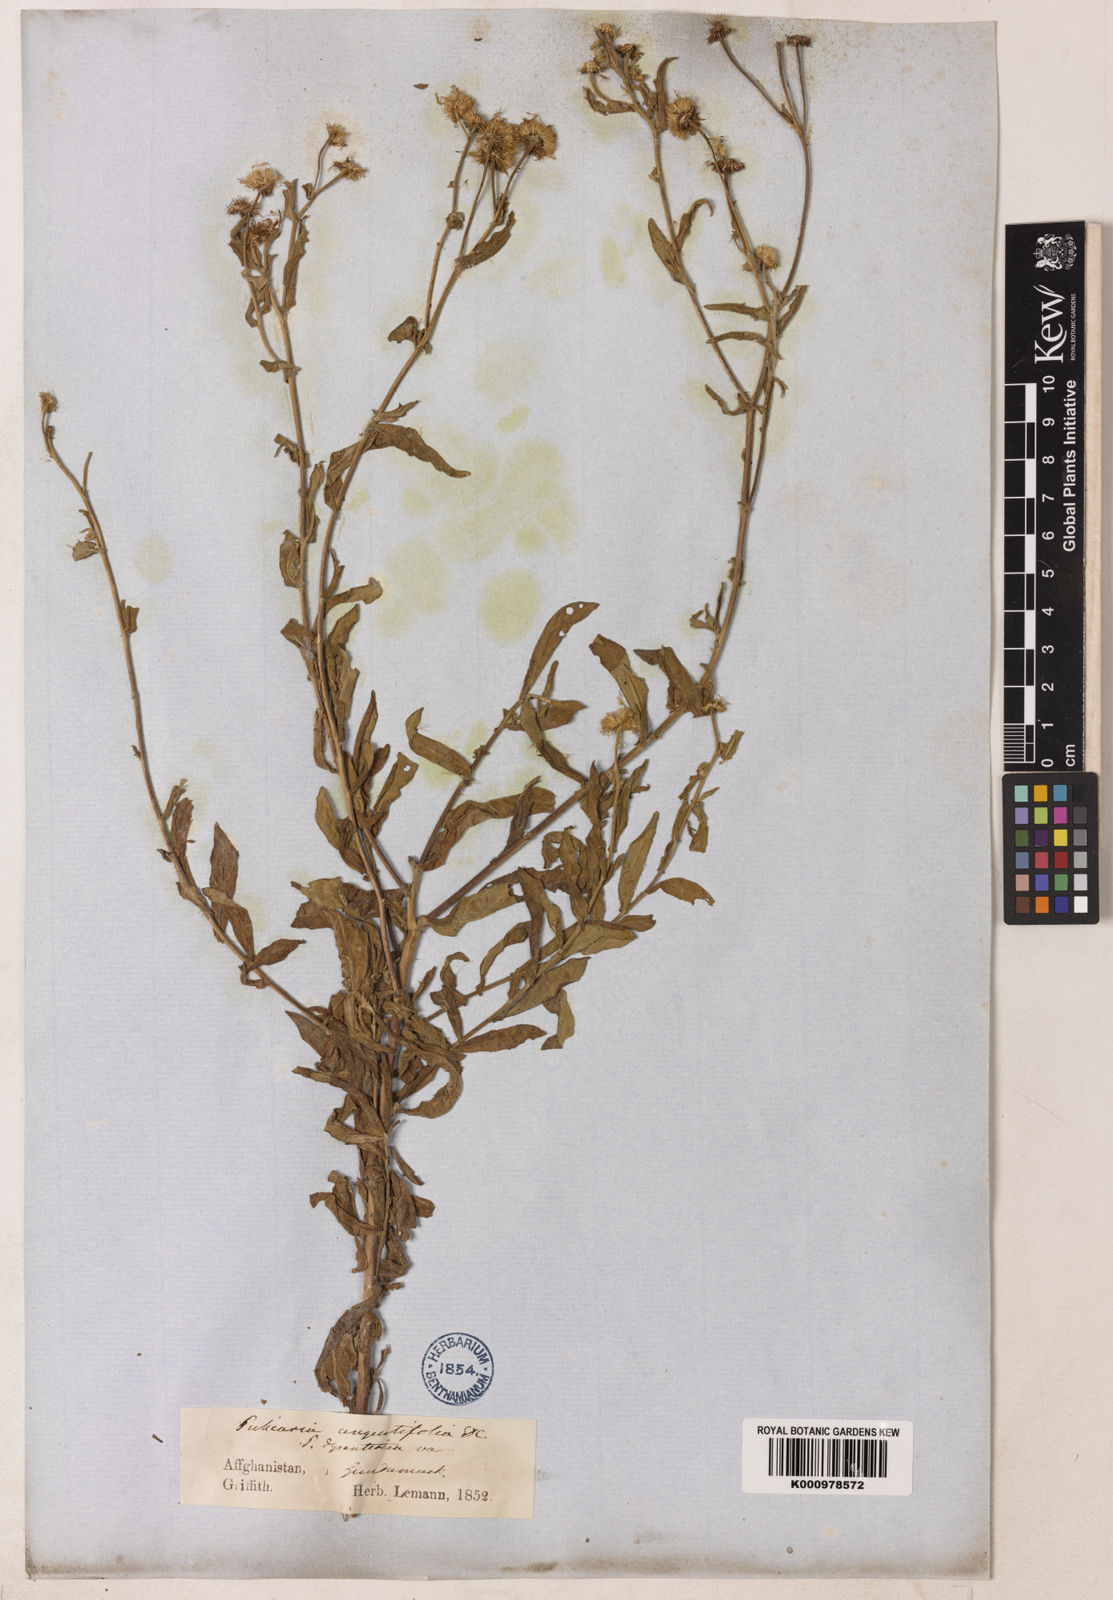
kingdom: Plantae
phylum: Tracheophyta
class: Magnoliopsida
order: Asterales
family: Asteraceae
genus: Pulicaria
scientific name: Pulicaria
